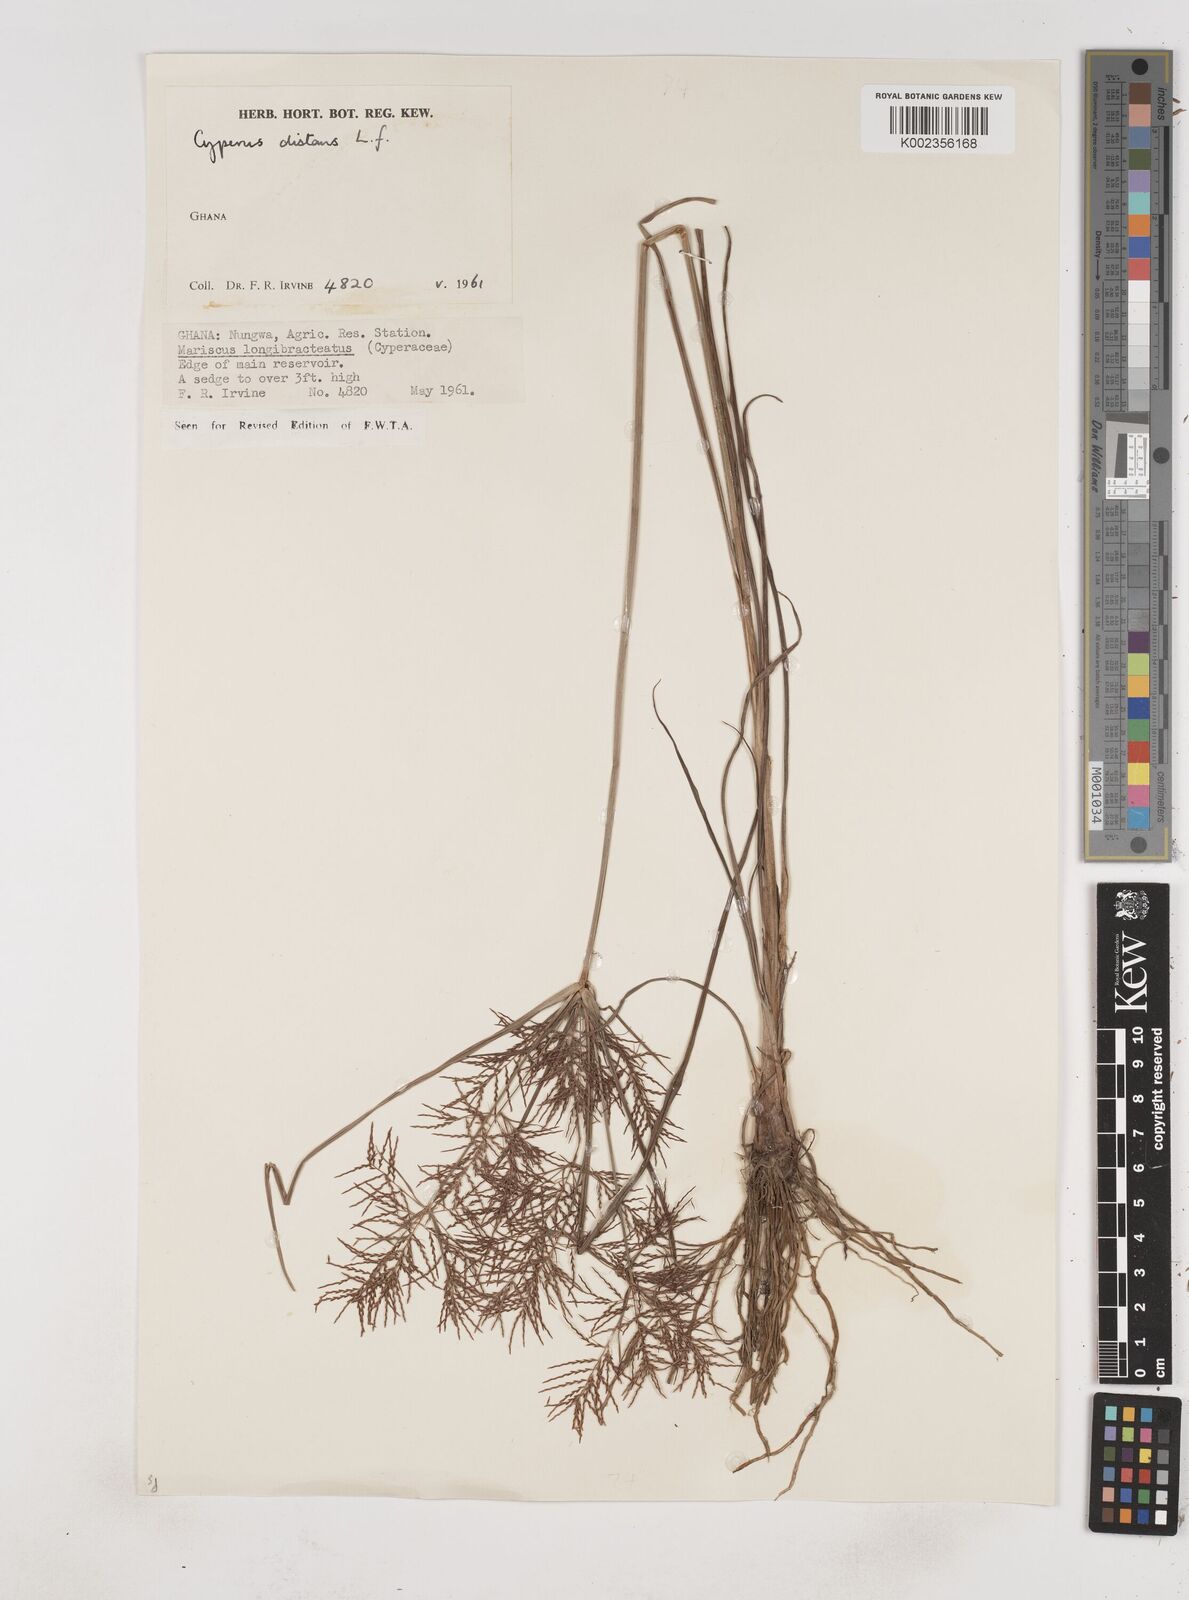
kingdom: Plantae
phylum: Tracheophyta
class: Liliopsida
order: Poales
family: Cyperaceae
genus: Cyperus
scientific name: Cyperus distans
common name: Slender cyperus
